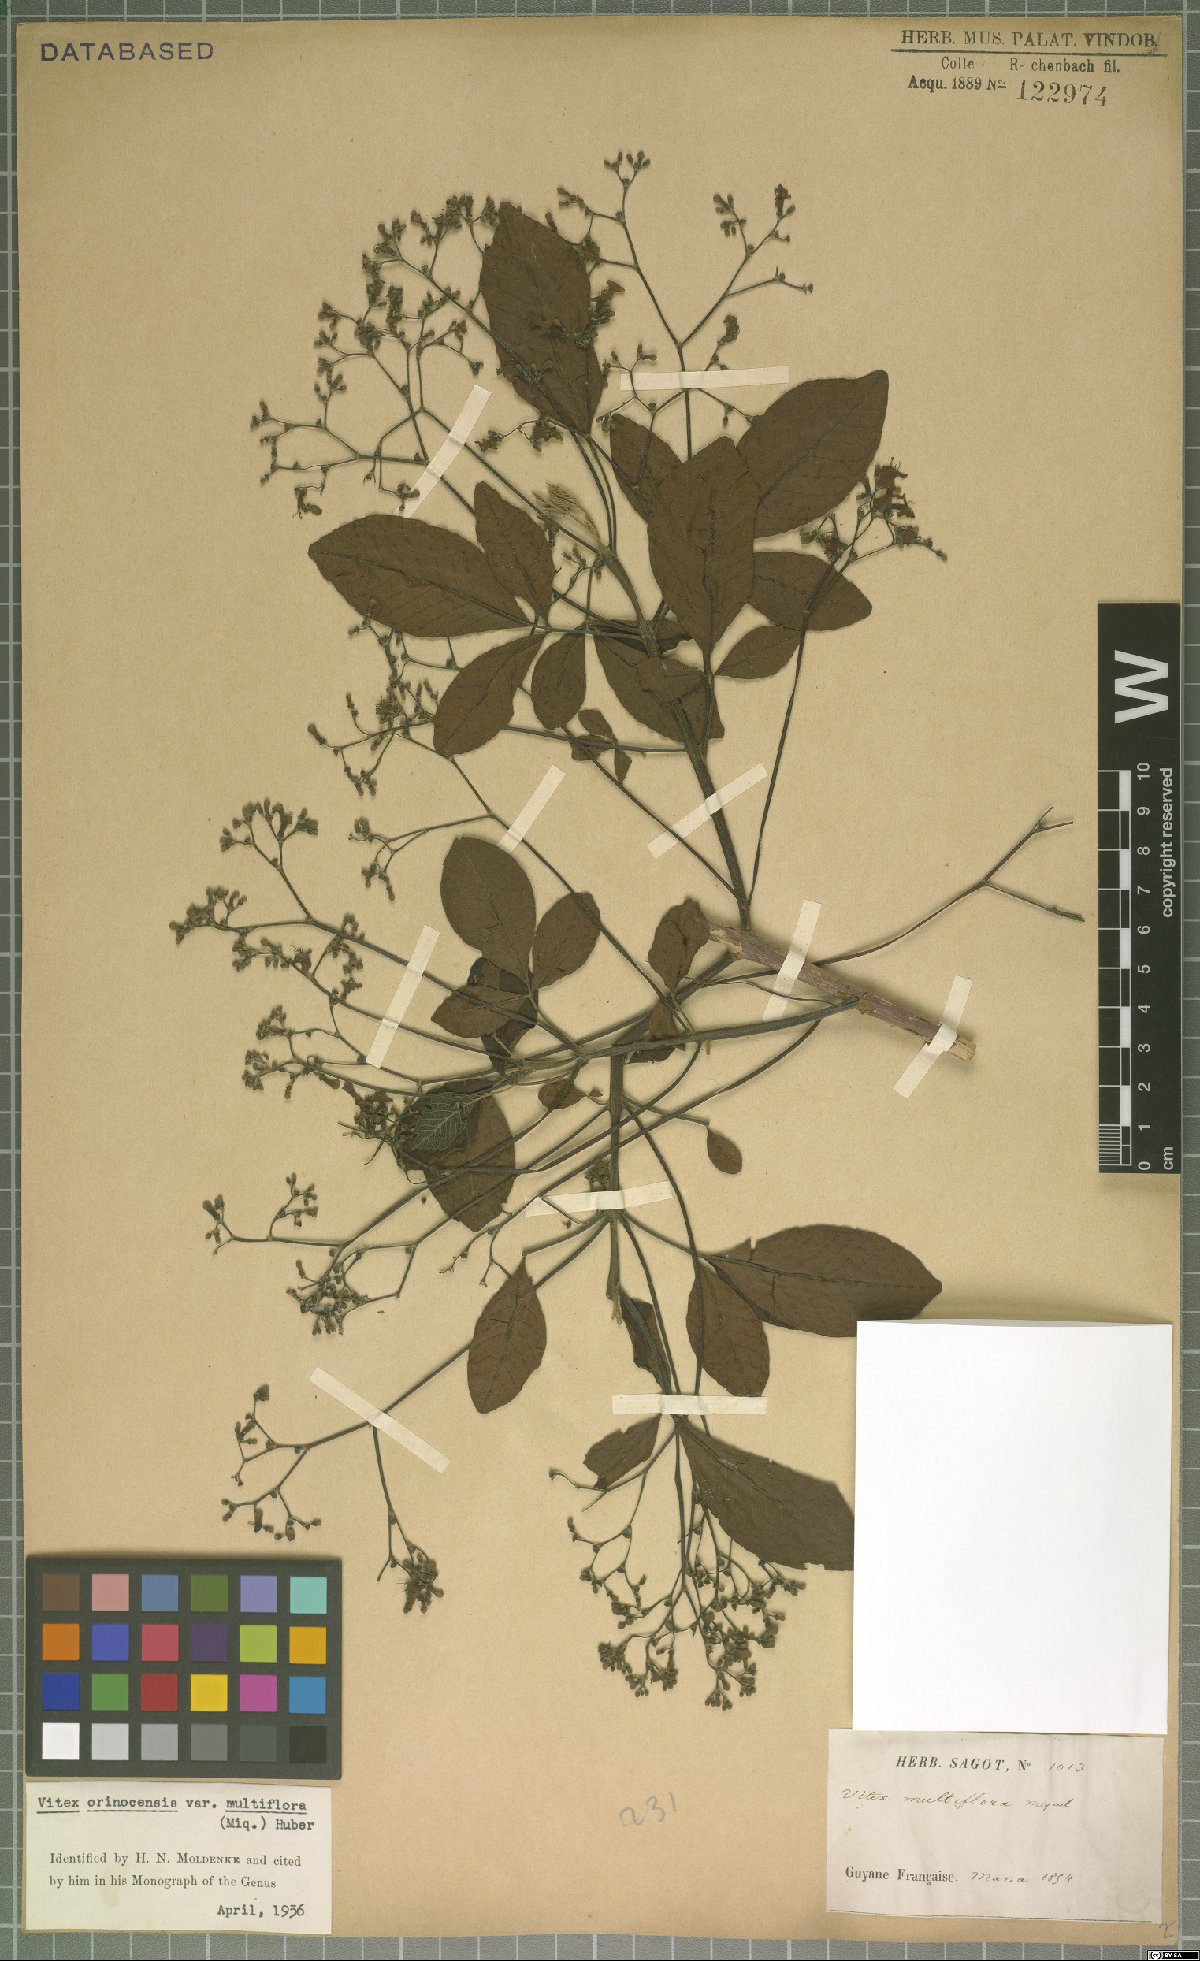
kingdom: Plantae
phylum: Tracheophyta
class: Magnoliopsida
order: Lamiales
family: Lamiaceae
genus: Vitex
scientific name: Vitex orinocensis
